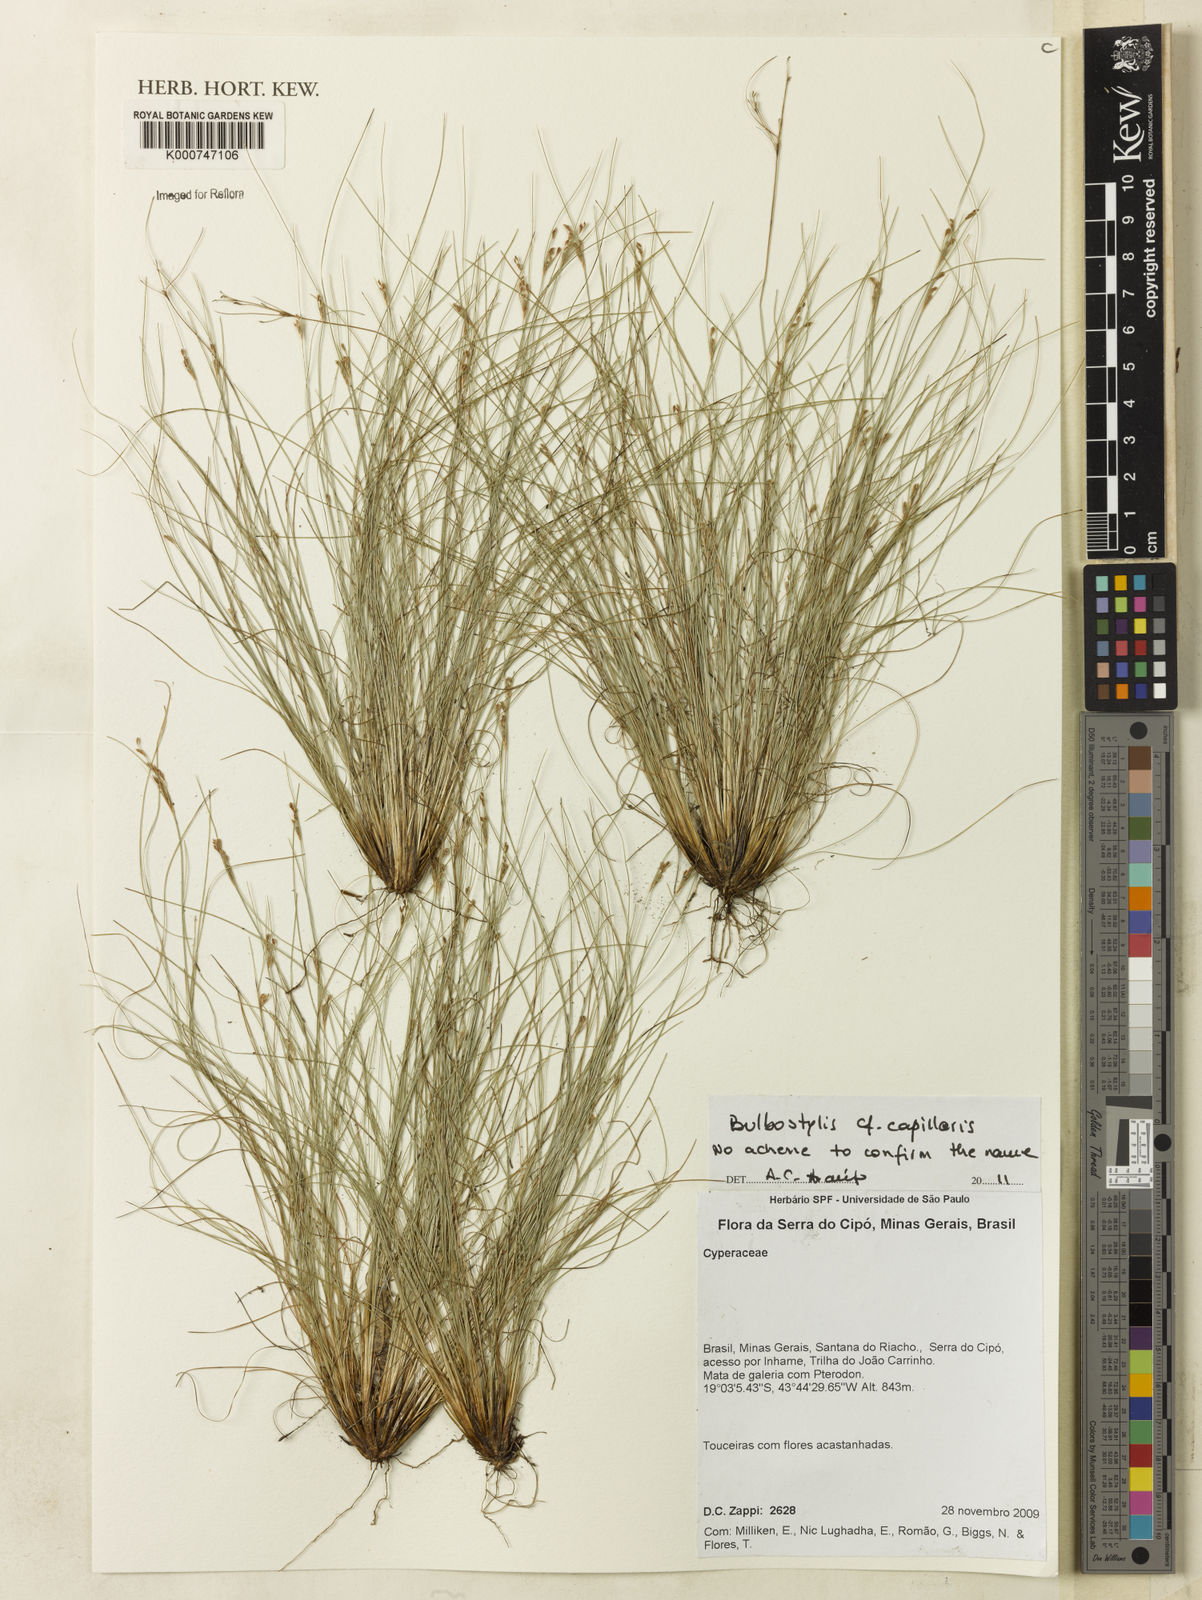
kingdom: Plantae
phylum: Tracheophyta
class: Liliopsida
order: Poales
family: Cyperaceae
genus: Bulbostylis
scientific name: Bulbostylis capillaris
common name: Densetuft hairsedge
